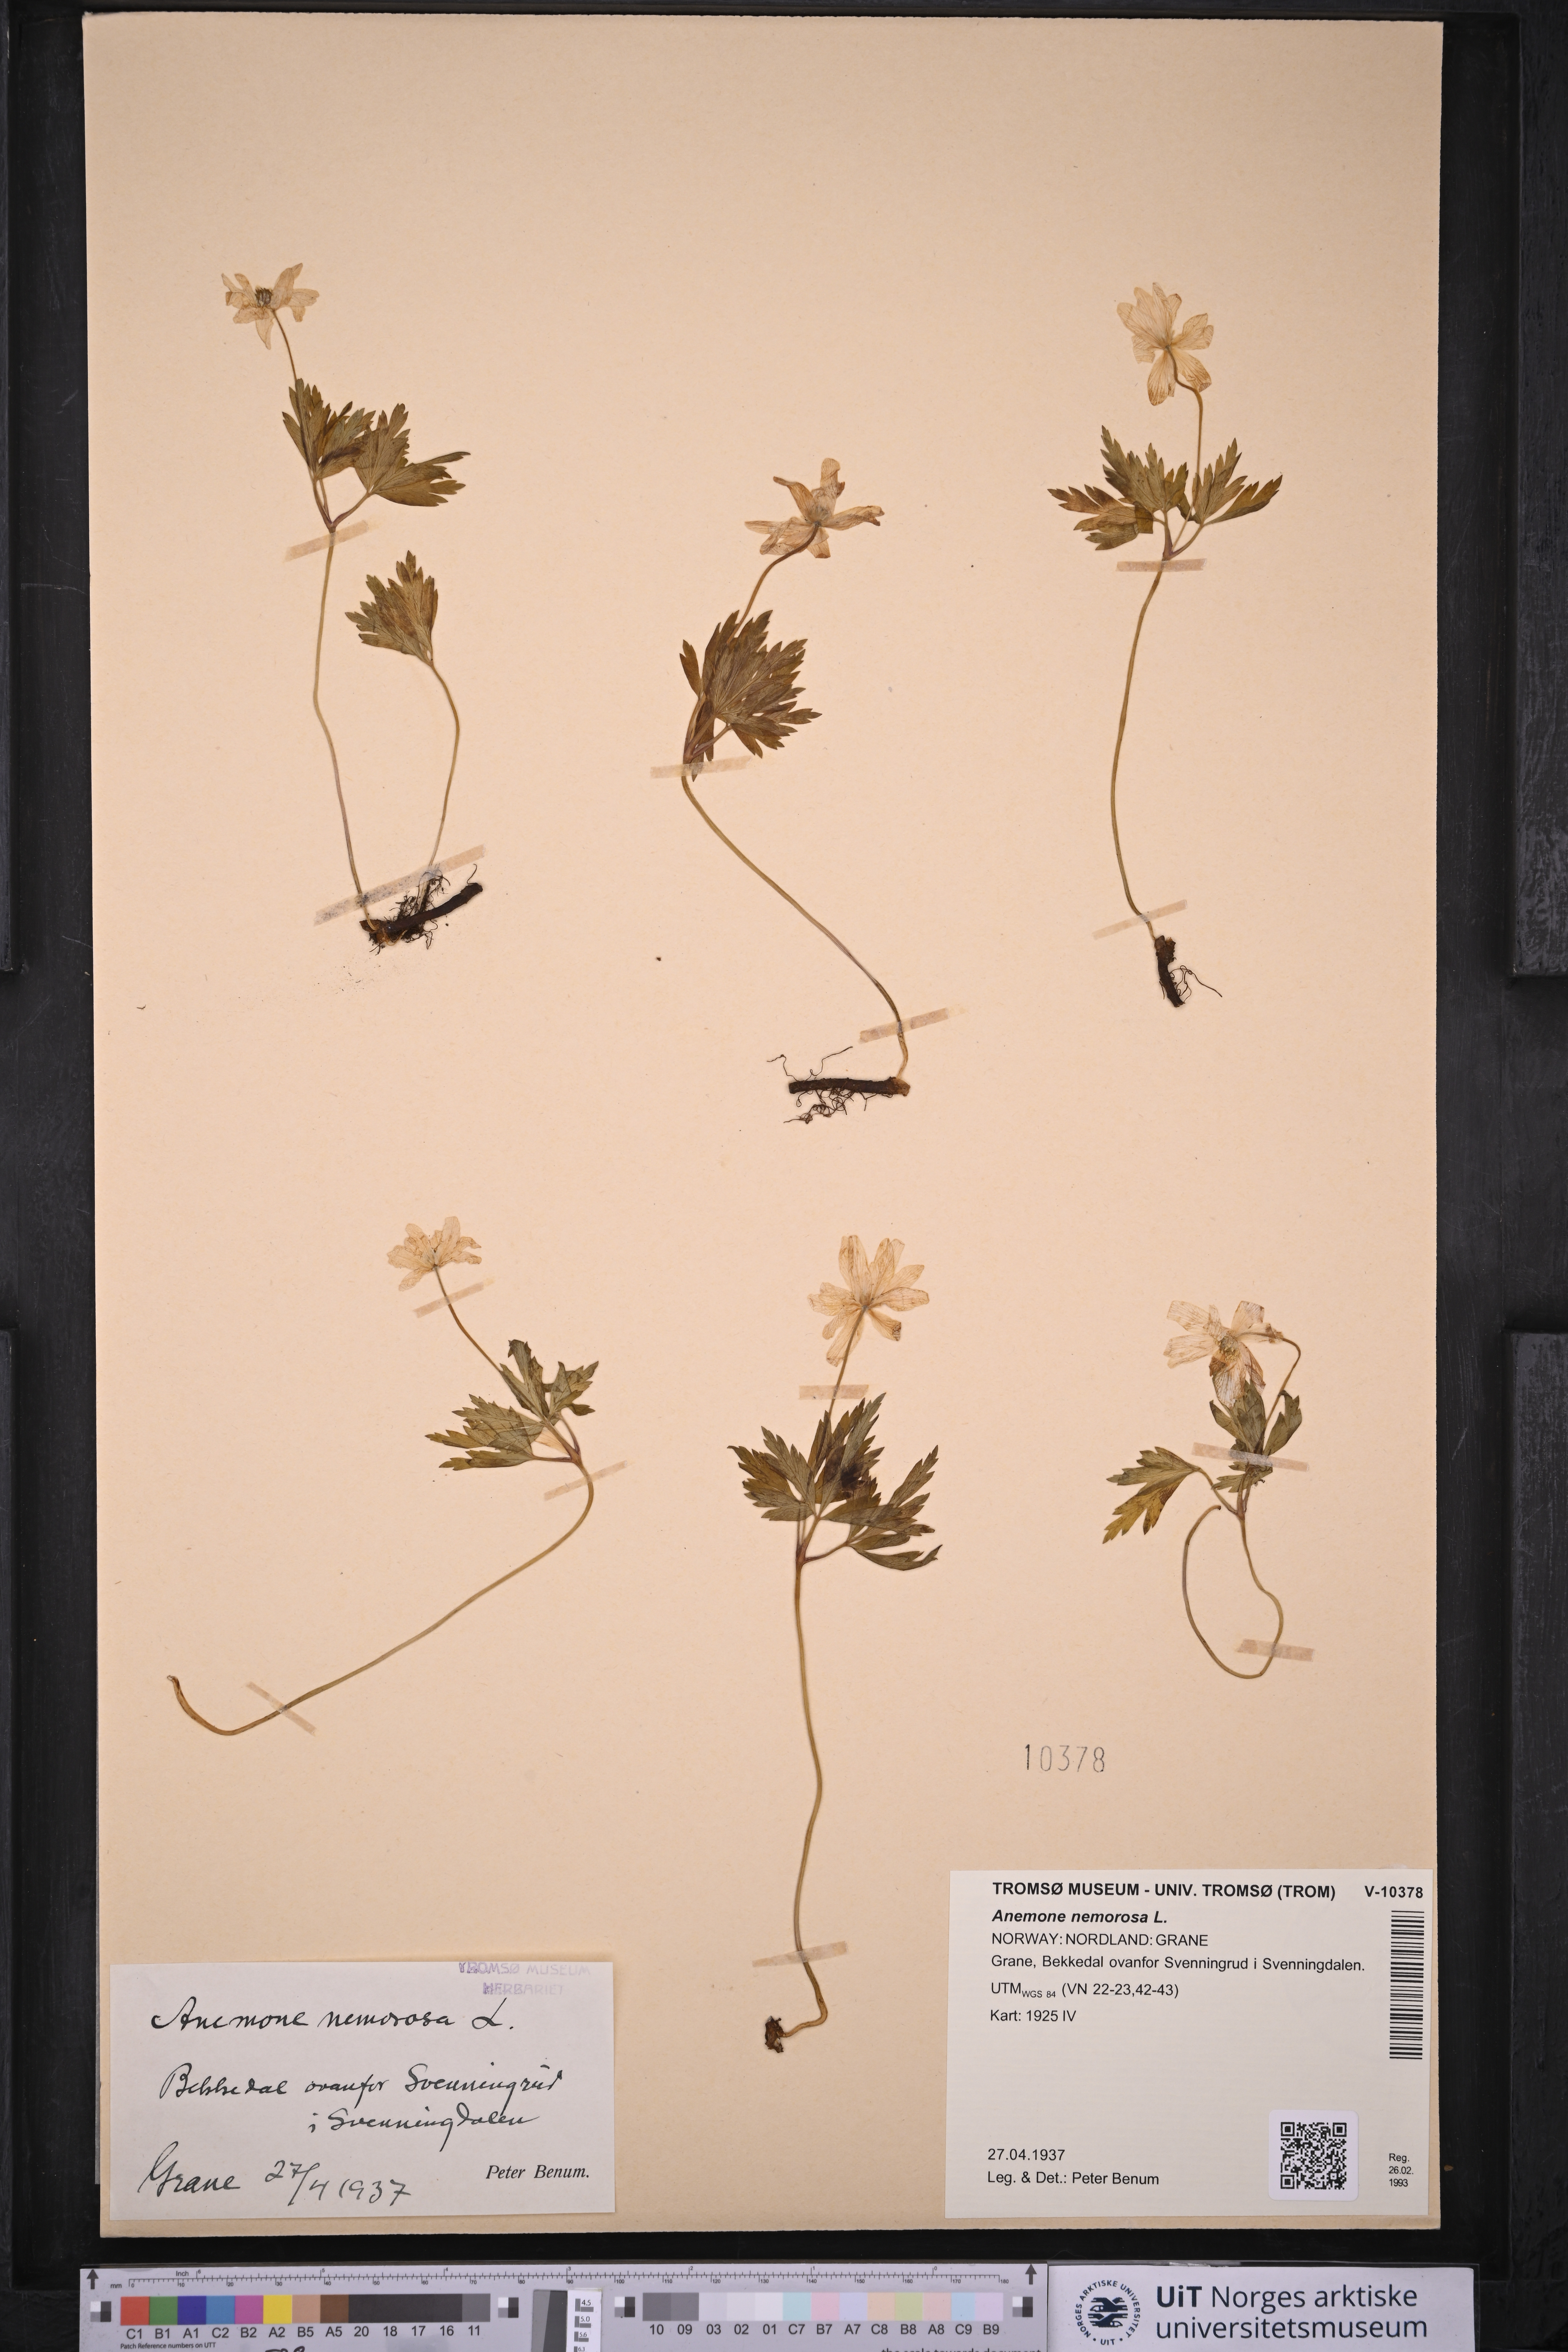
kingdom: Plantae
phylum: Tracheophyta
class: Magnoliopsida
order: Ranunculales
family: Ranunculaceae
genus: Anemone
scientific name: Anemone nemorosa
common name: Wood anemone
